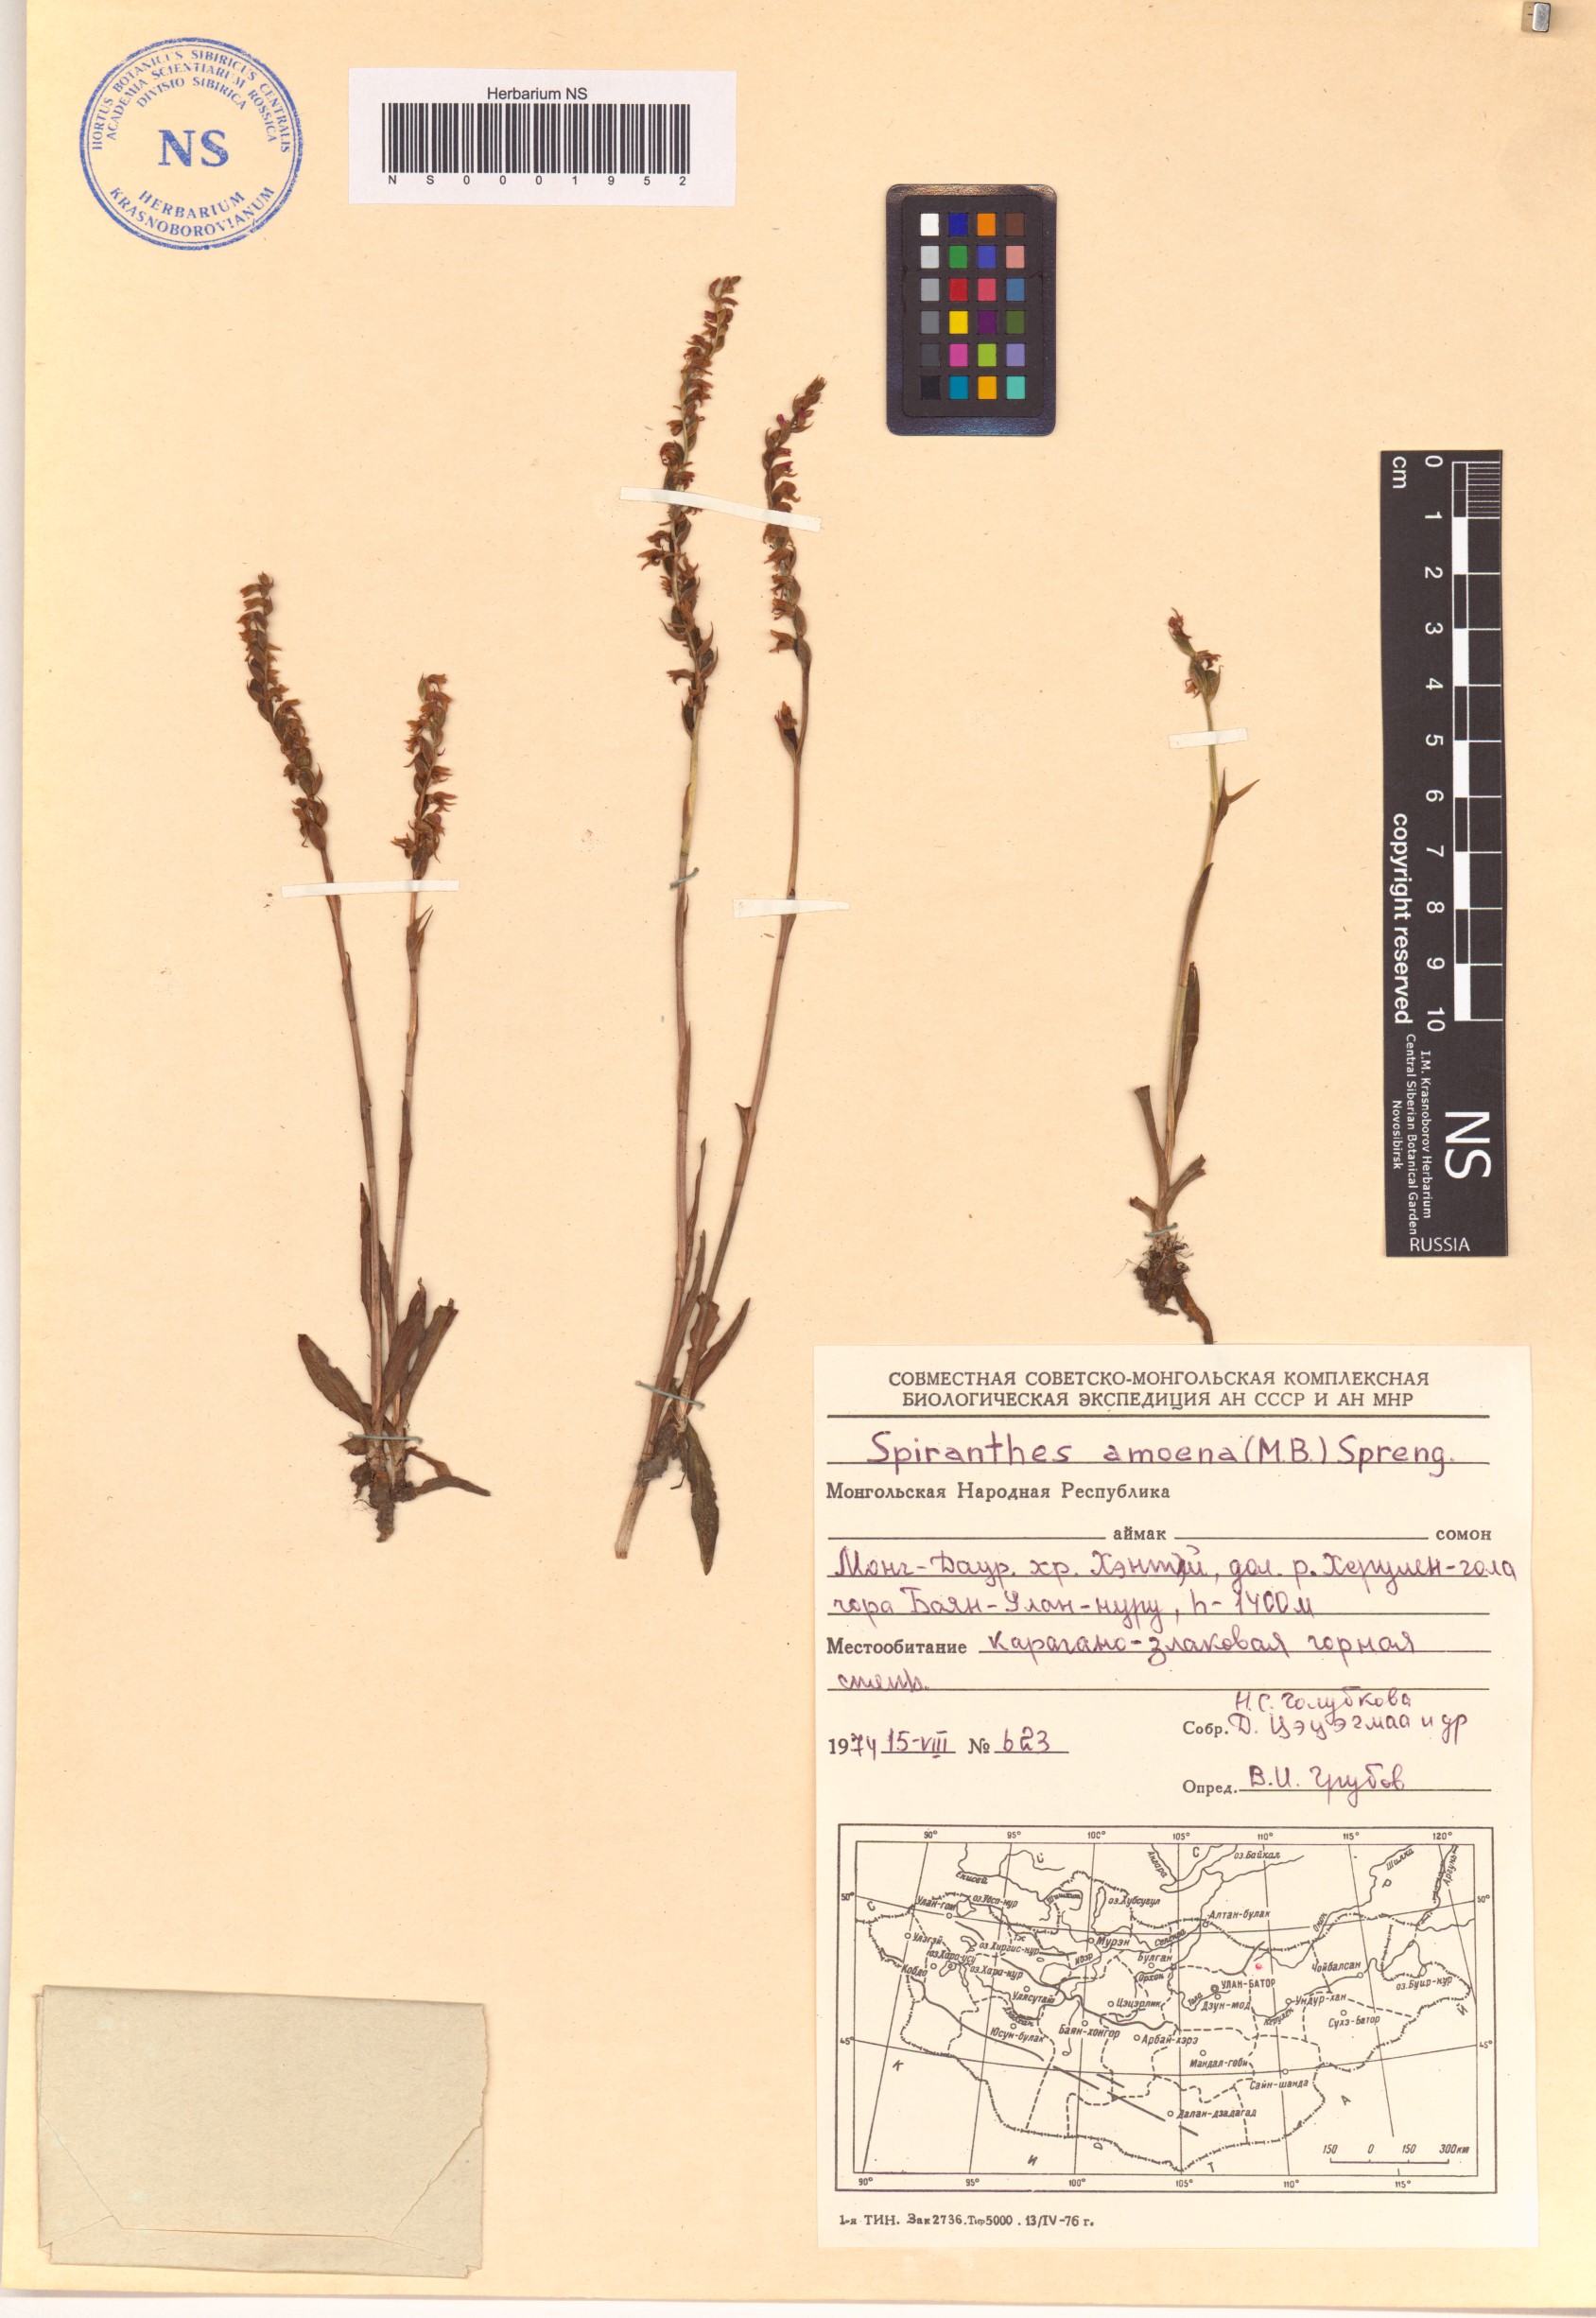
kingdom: Plantae
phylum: Tracheophyta
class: Liliopsida
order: Asparagales
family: Orchidaceae
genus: Spiranthes
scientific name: Spiranthes australis
